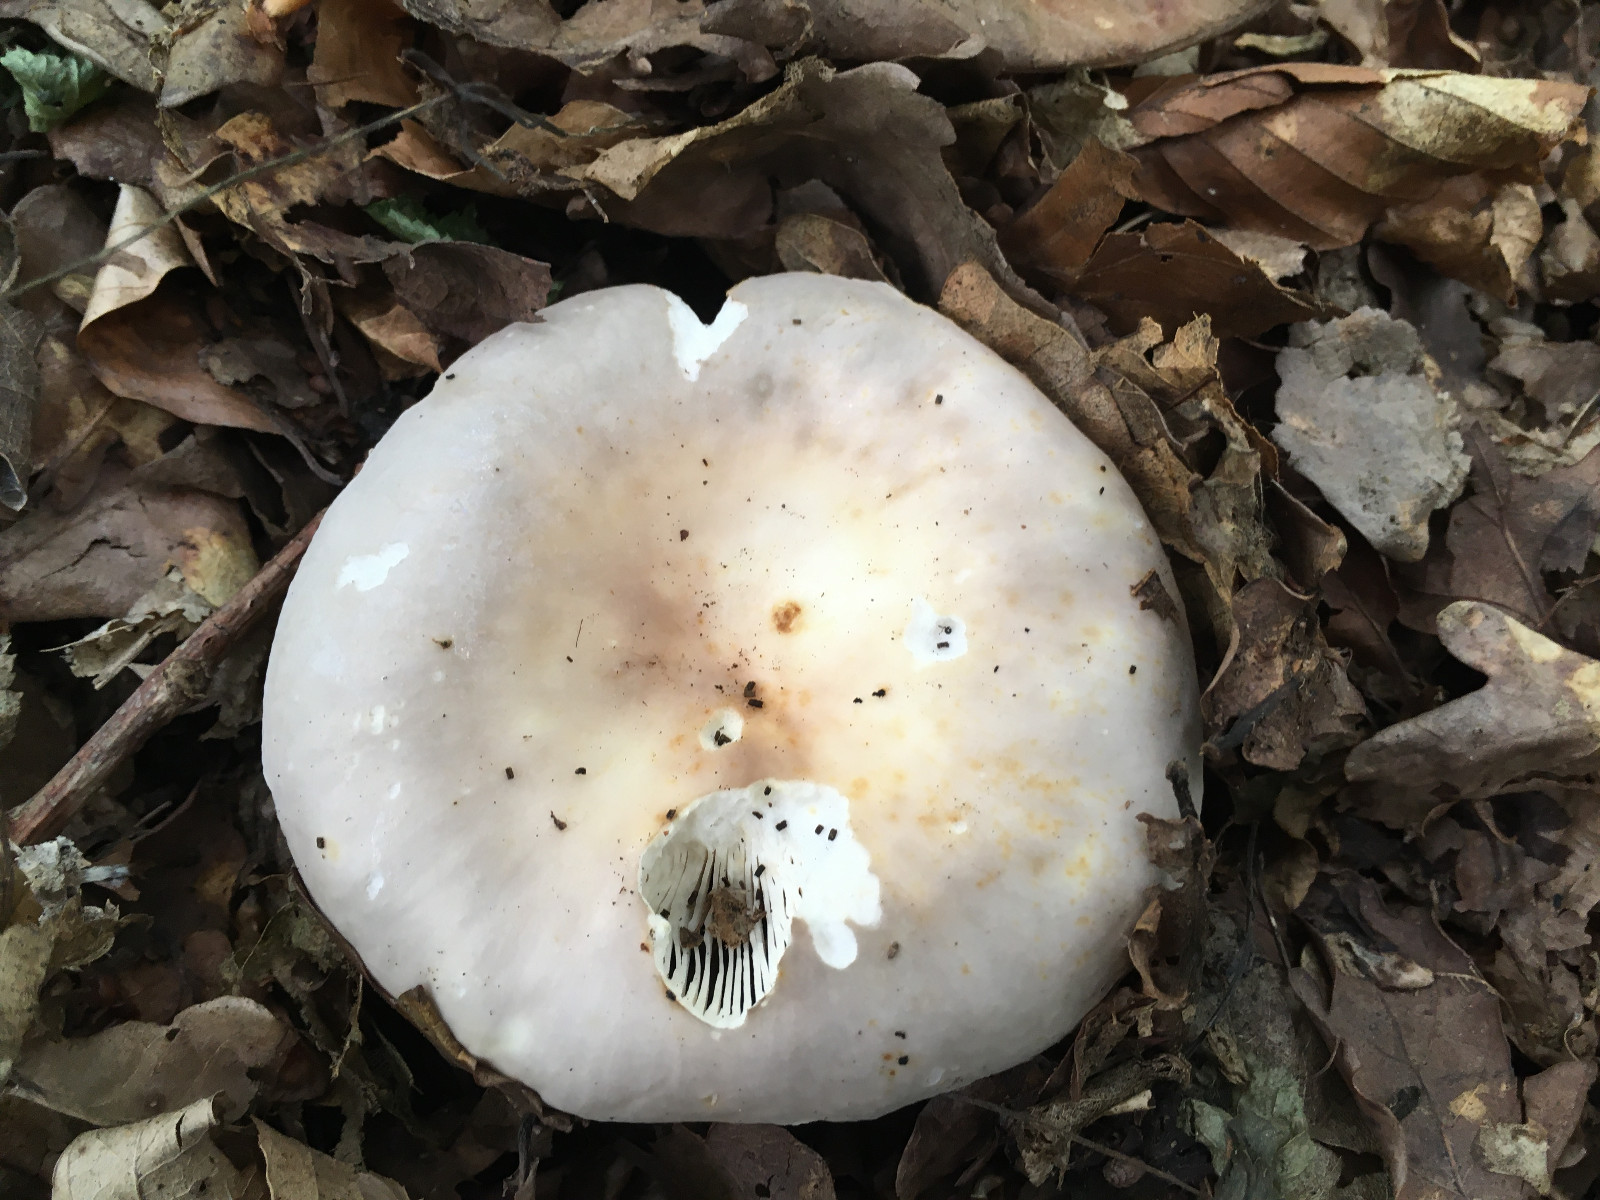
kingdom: Fungi
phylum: Basidiomycota
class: Agaricomycetes
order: Russulales
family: Russulaceae
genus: Russula
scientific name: Russula vesca
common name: spiselig skørhat
